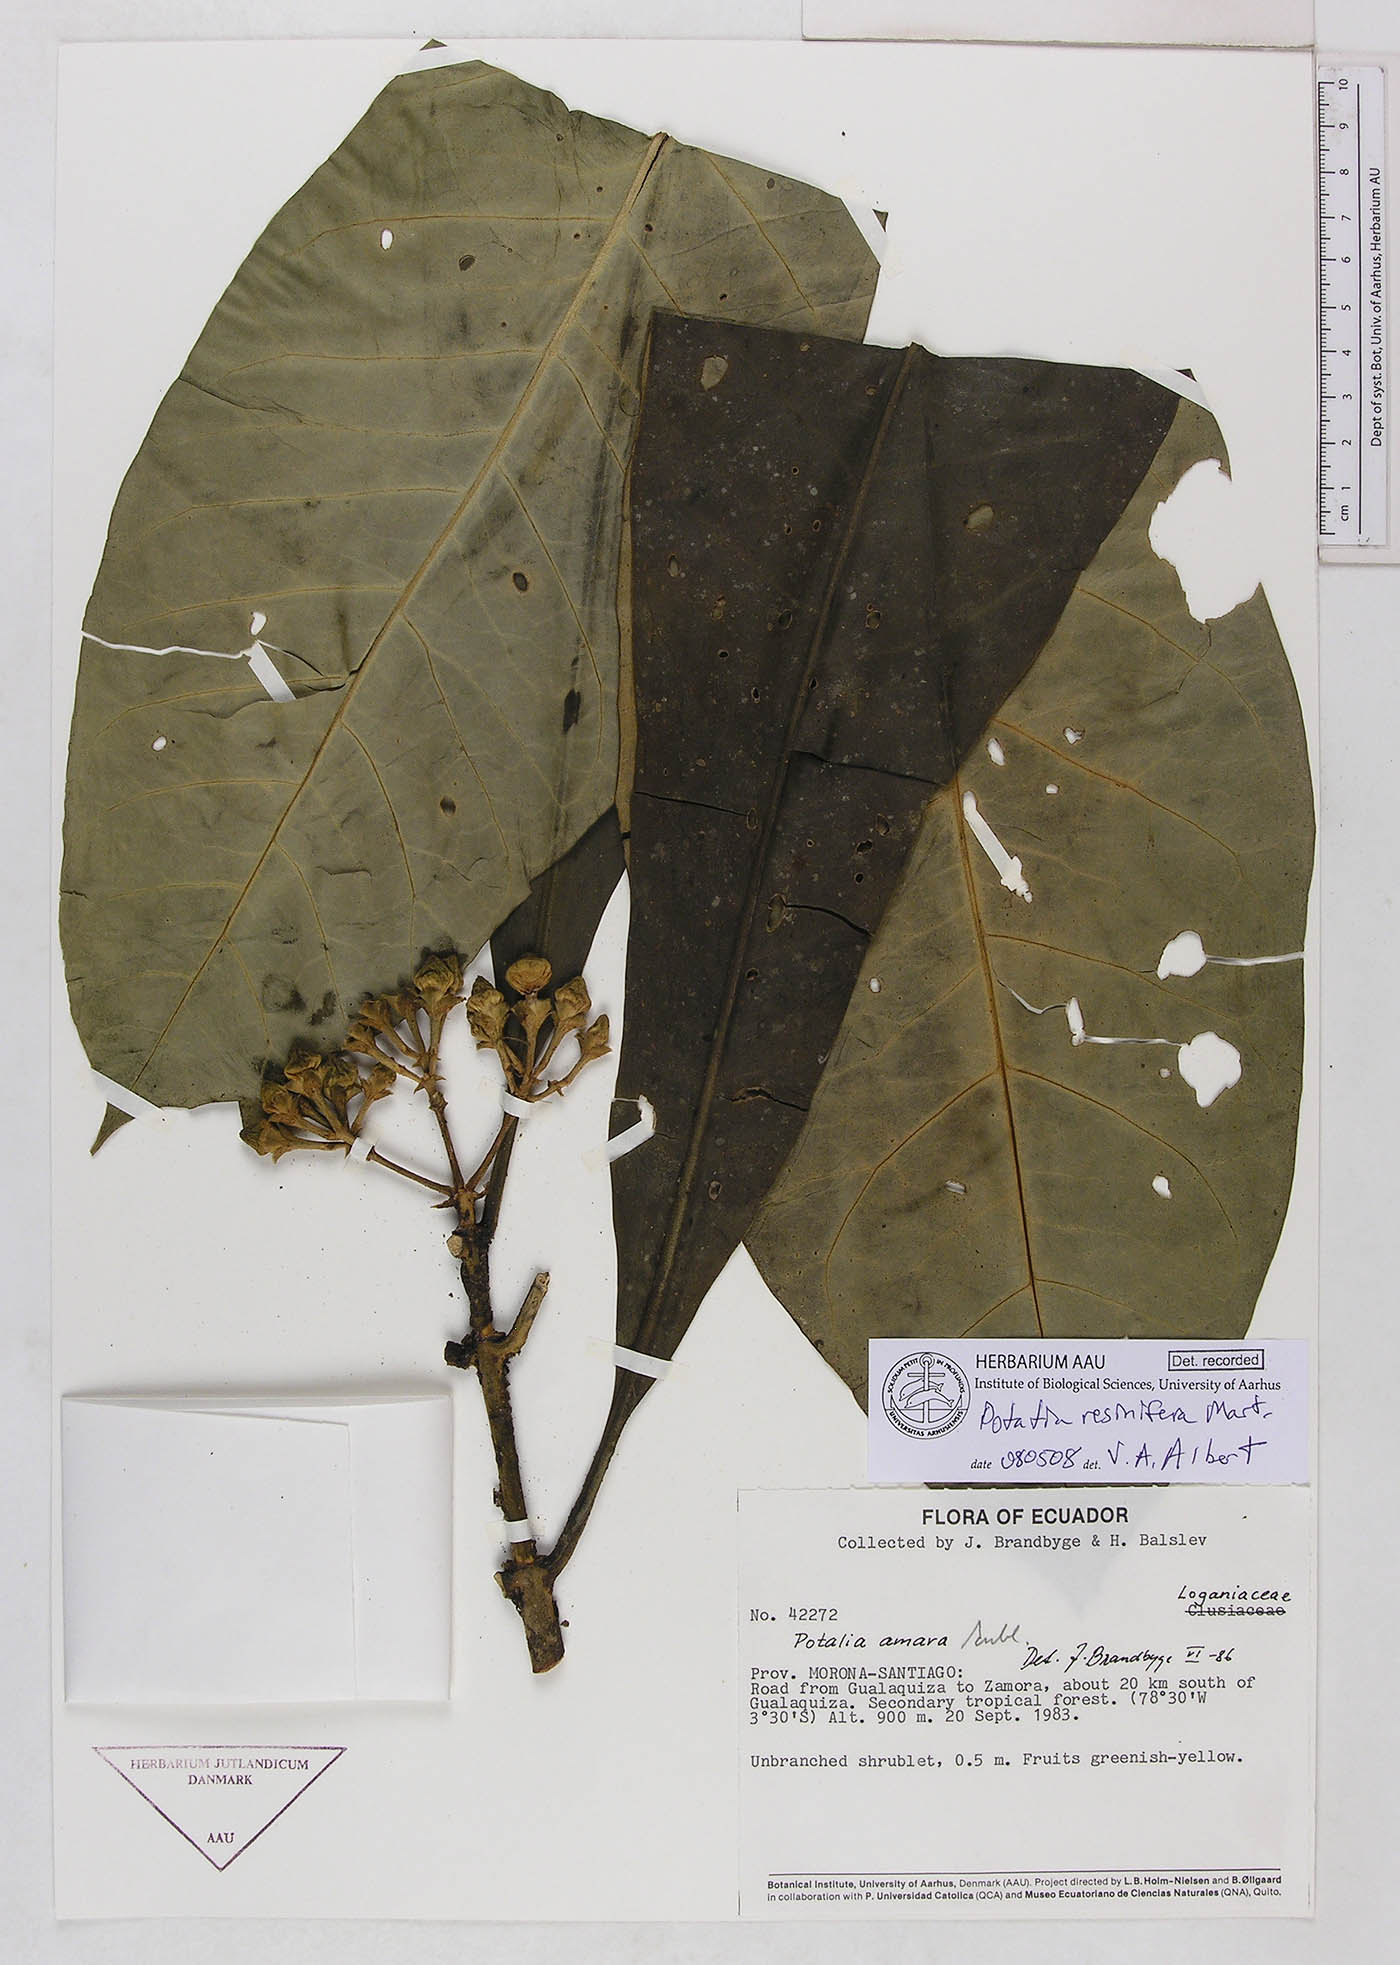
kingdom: Plantae
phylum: Tracheophyta
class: Magnoliopsida
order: Gentianales
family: Gentianaceae
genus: Potalia
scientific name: Potalia resinifera
